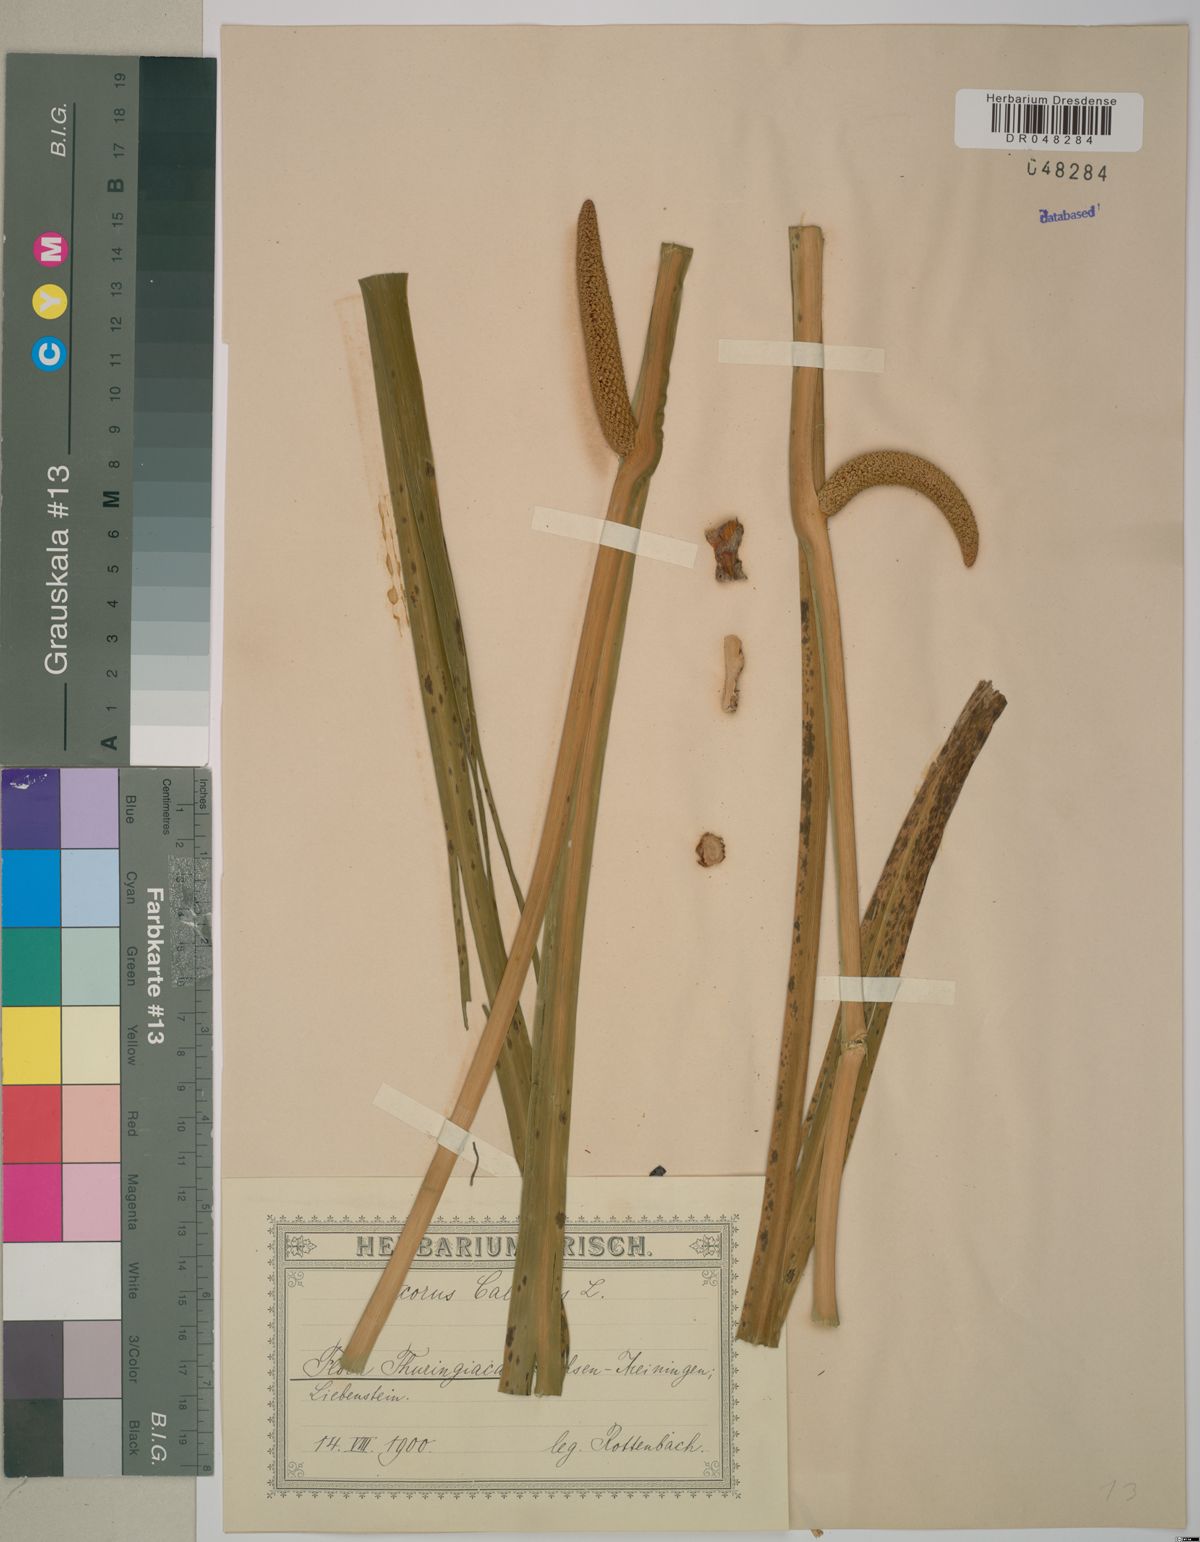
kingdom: Plantae
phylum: Tracheophyta
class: Liliopsida
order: Acorales
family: Acoraceae
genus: Acorus
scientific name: Acorus calamus
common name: Sweet-flag
